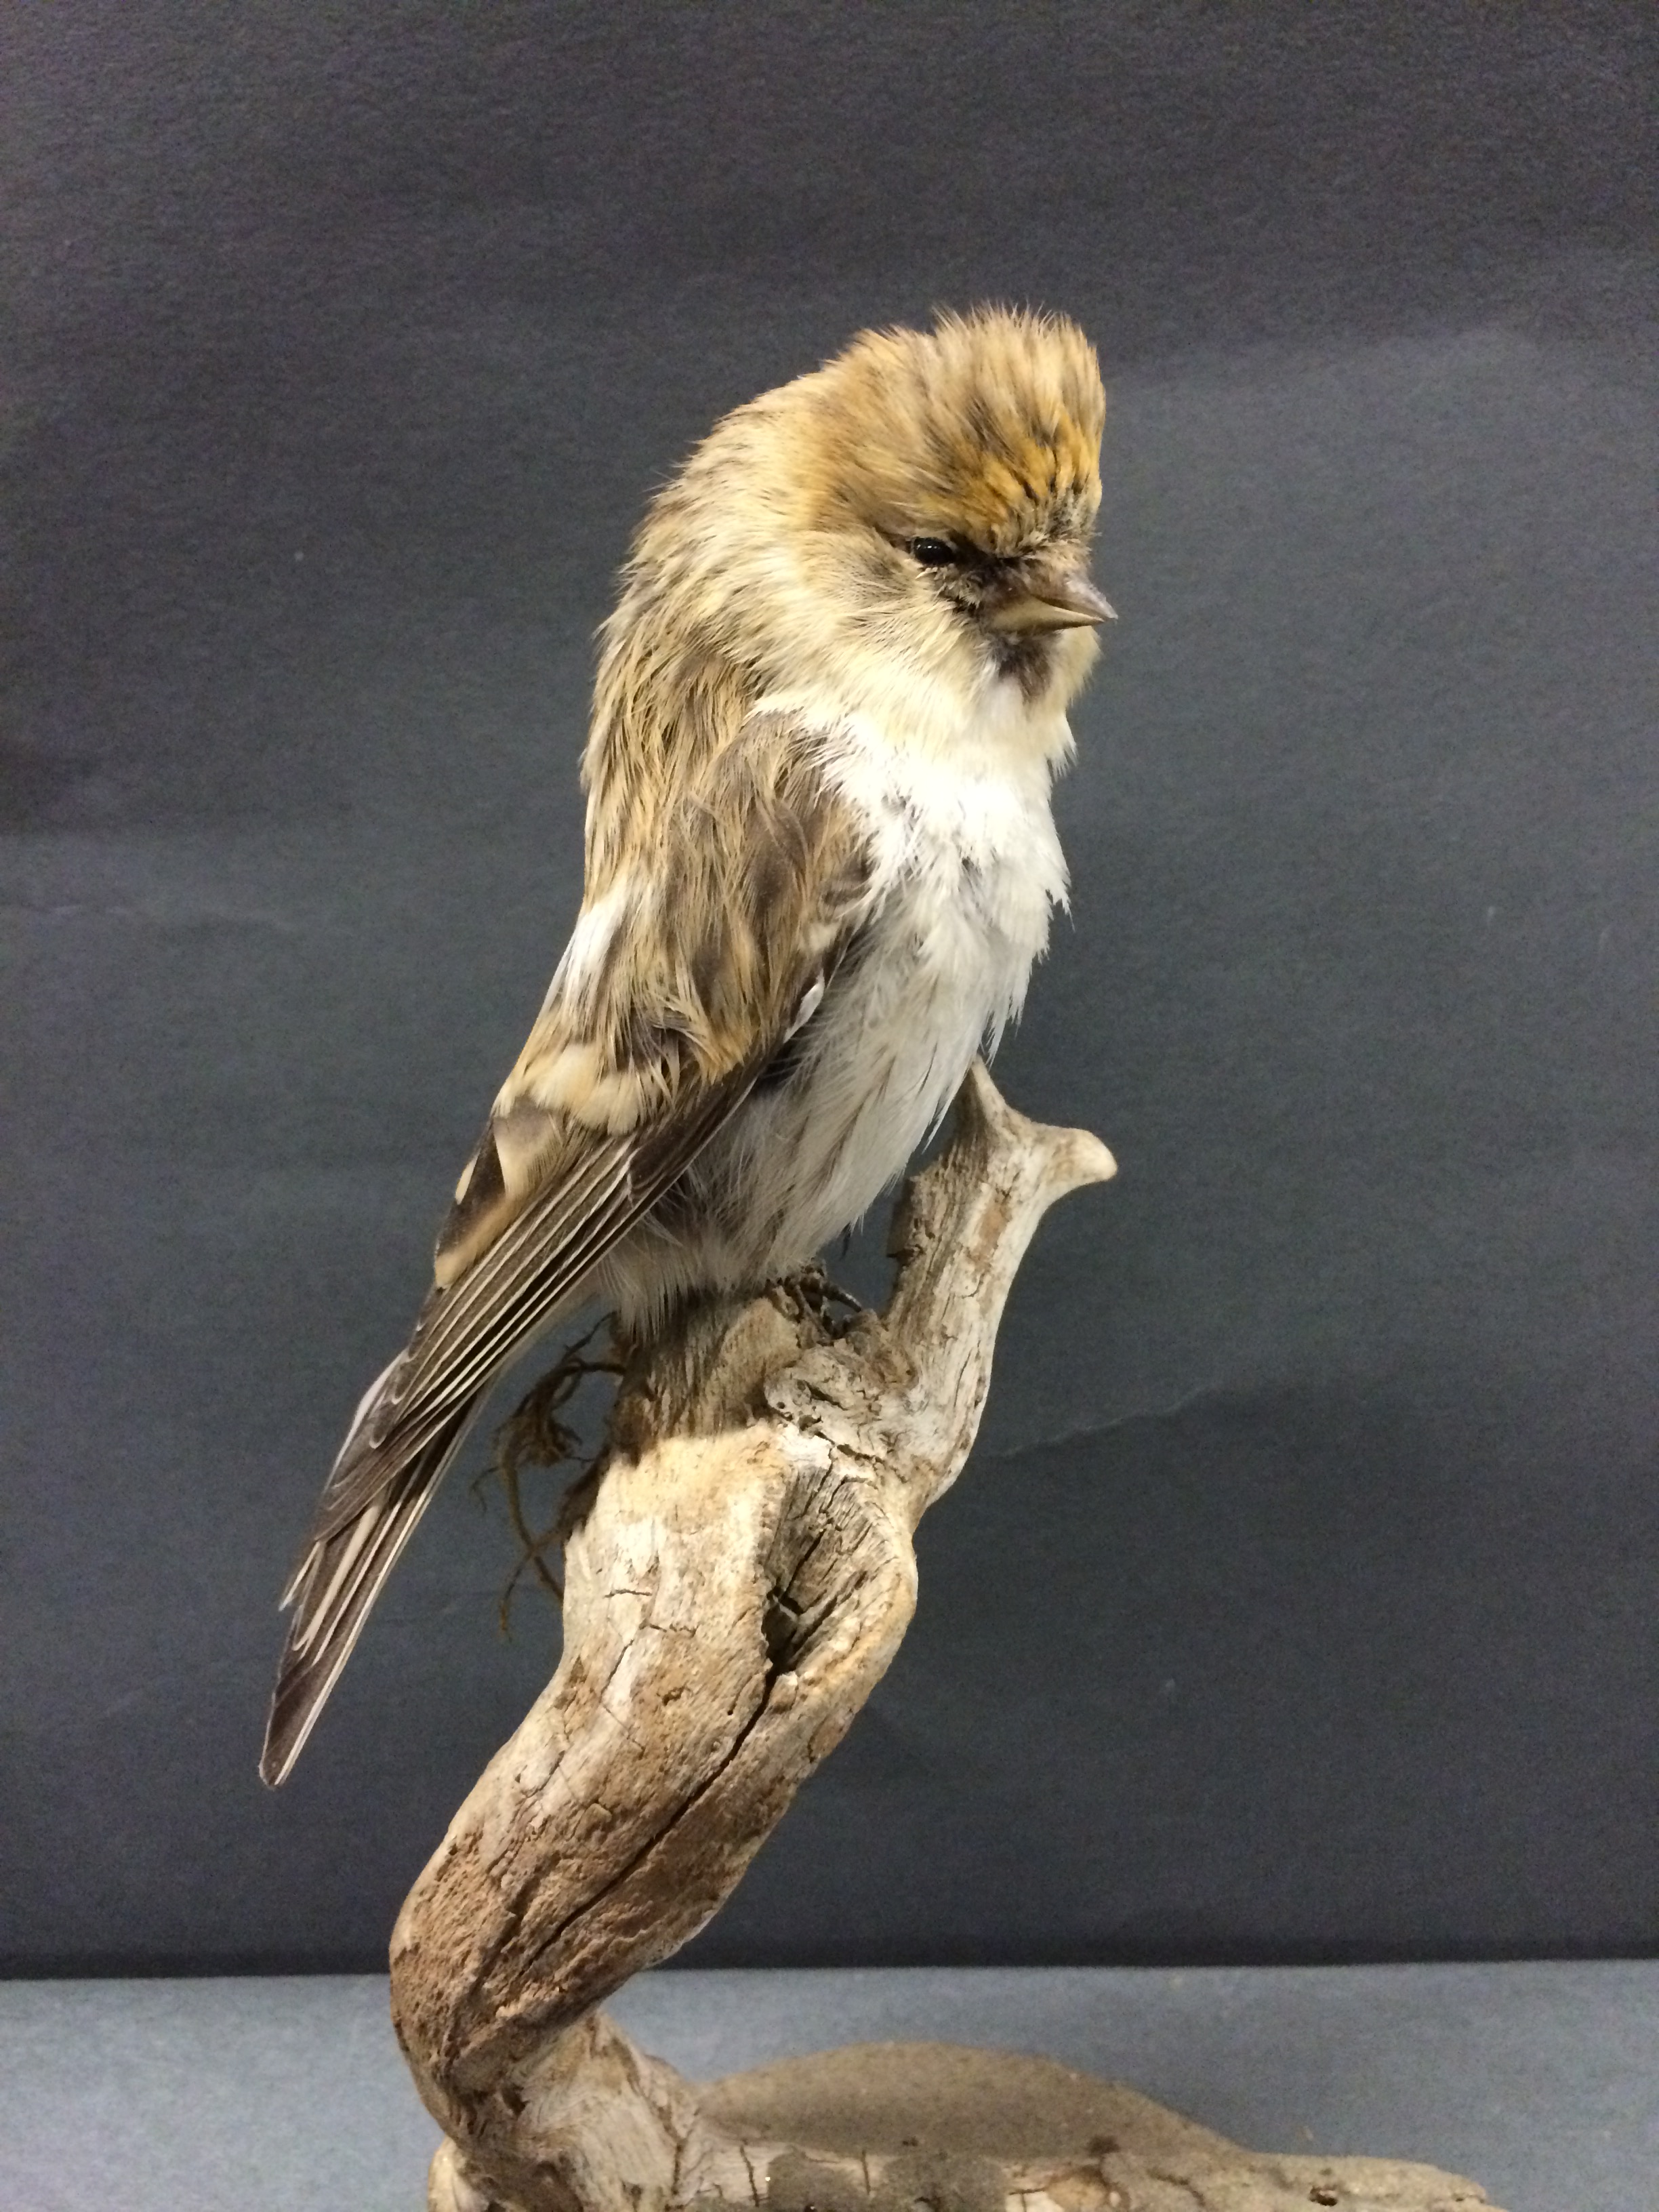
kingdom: Animalia
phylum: Chordata
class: Aves
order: Passeriformes
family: Fringillidae
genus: Acanthis
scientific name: Acanthis hornemanni
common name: Arctic redpoll
